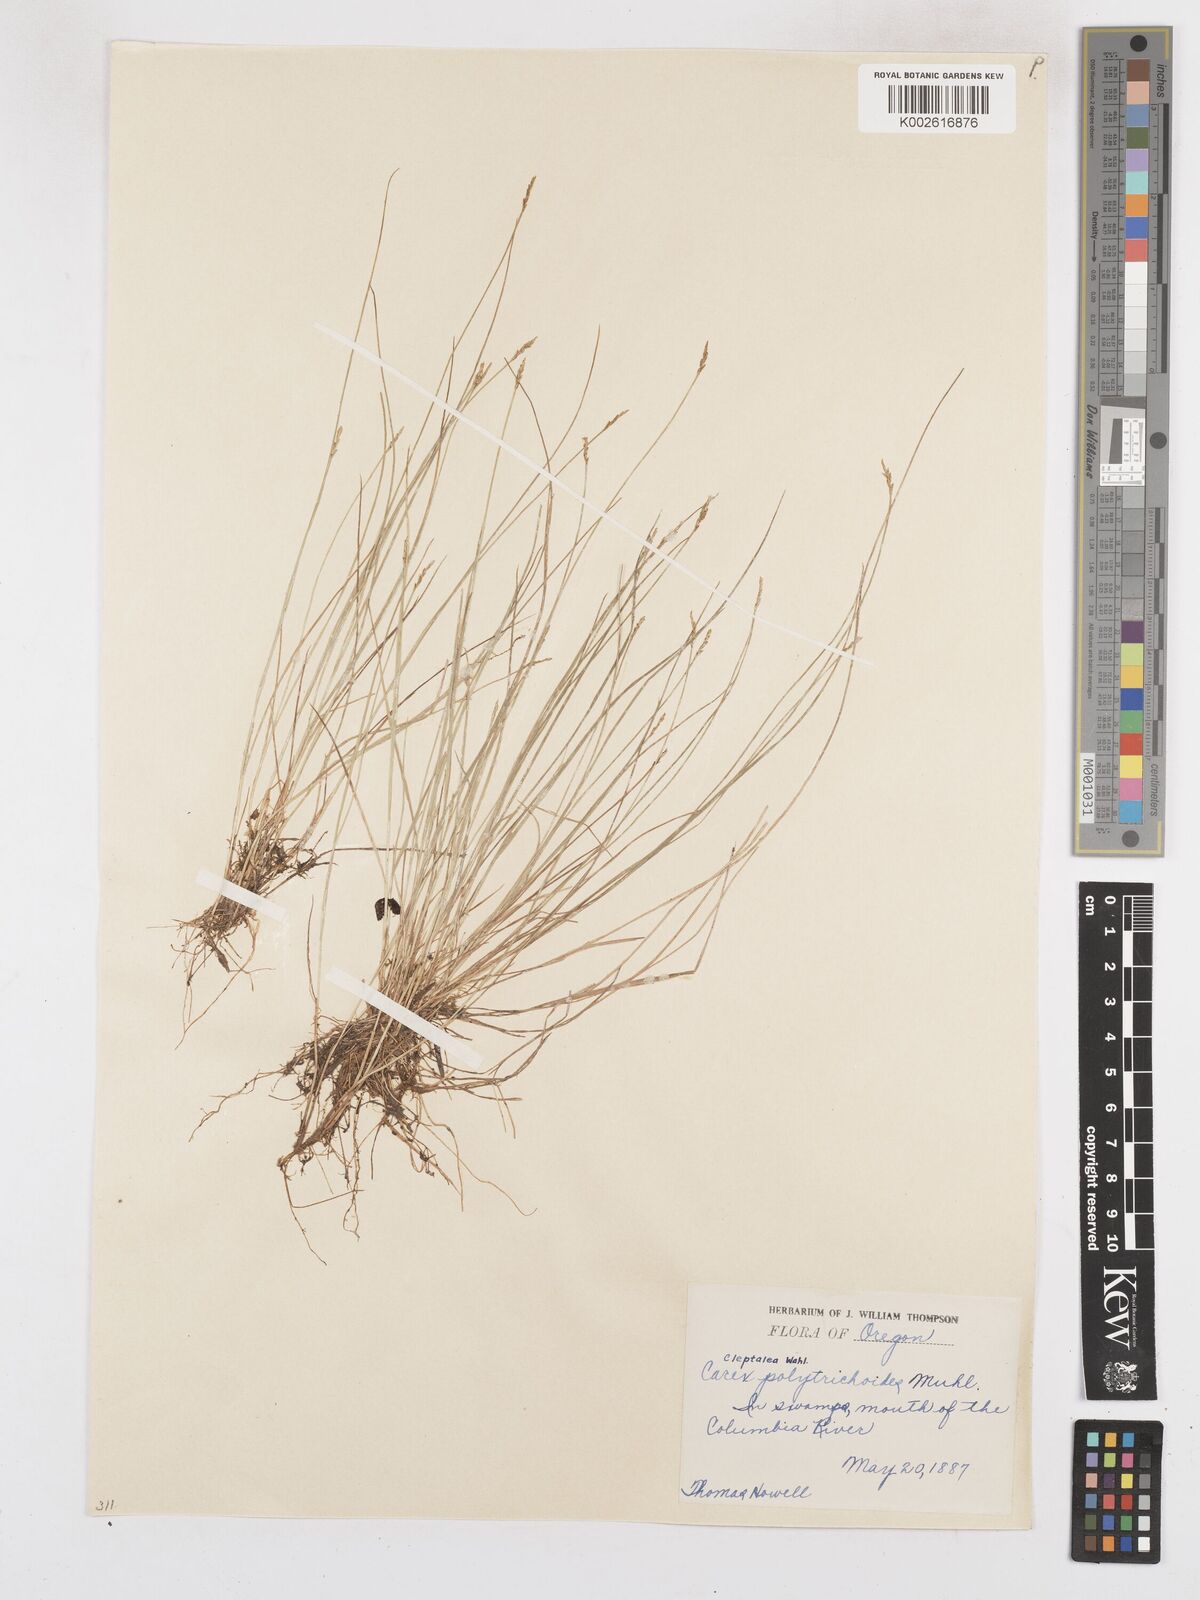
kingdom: Plantae
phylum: Tracheophyta
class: Liliopsida
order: Poales
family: Cyperaceae
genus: Carex
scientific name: Carex leptalea
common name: Bristly-stalked sedge
